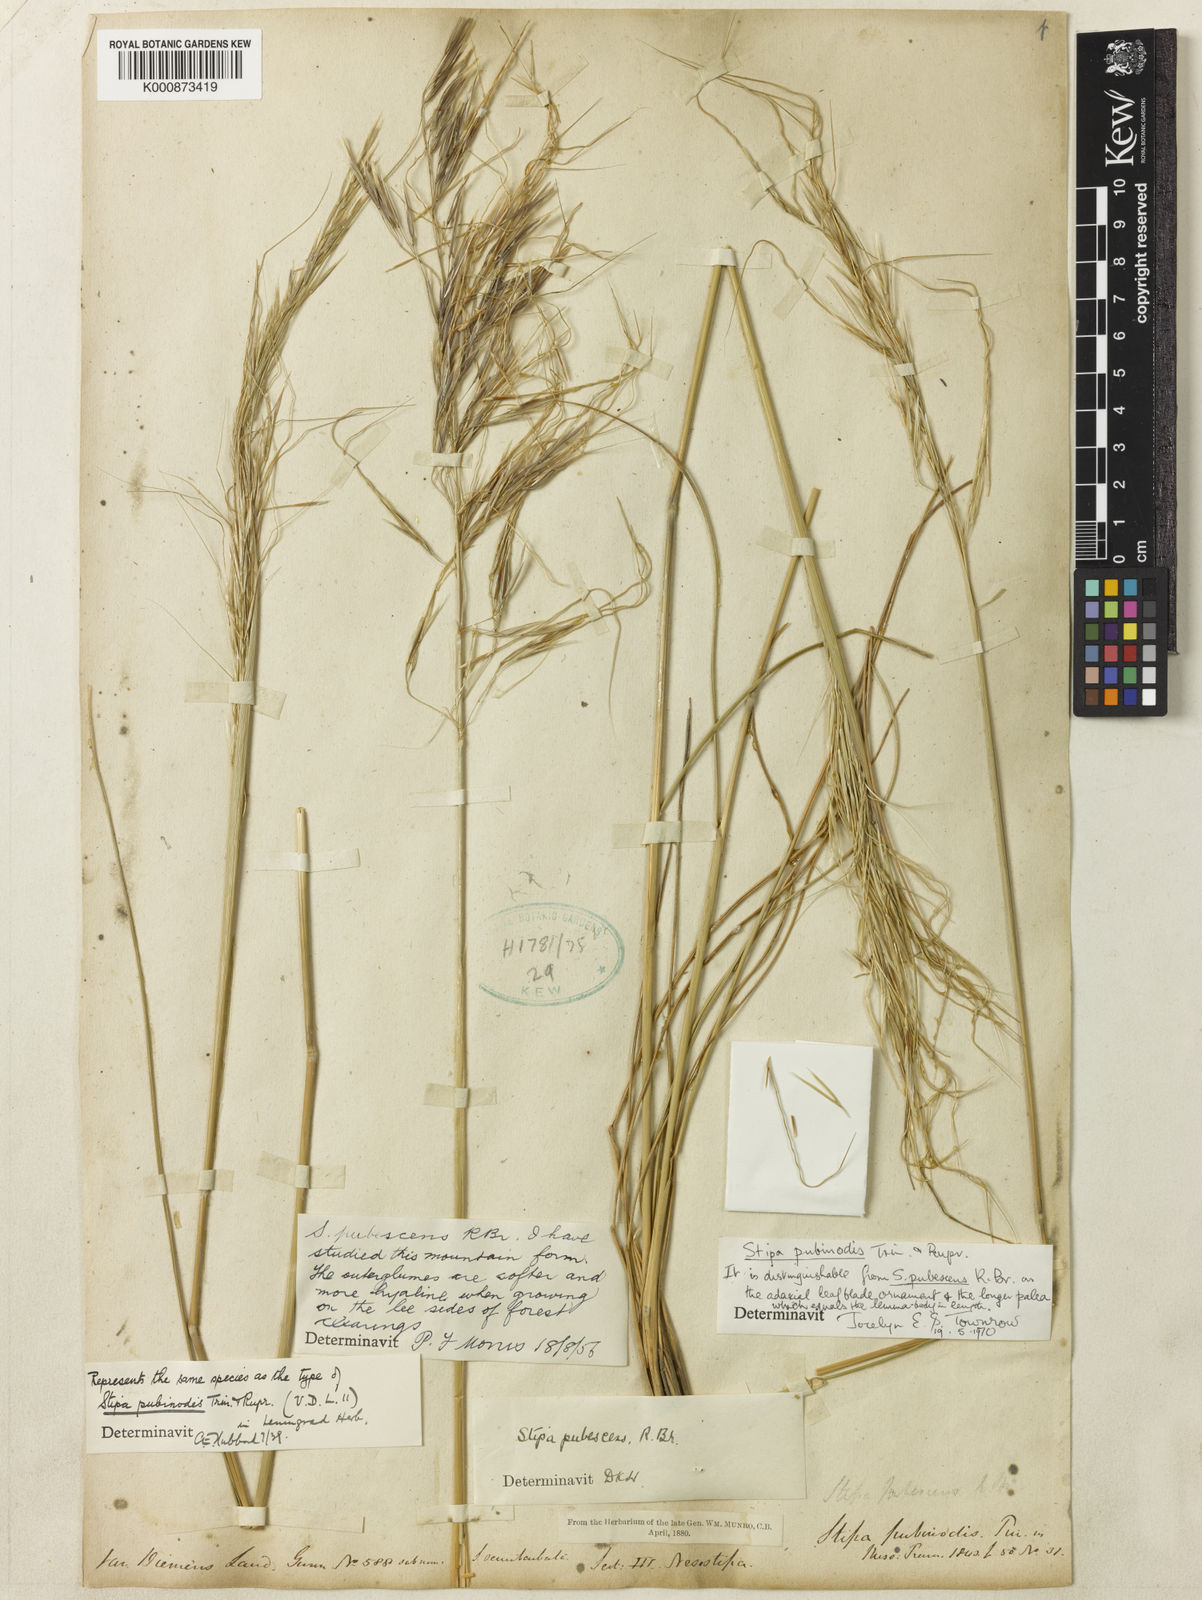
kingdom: Plantae
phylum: Tracheophyta
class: Liliopsida
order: Poales
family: Poaceae
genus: Austrostipa
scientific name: Austrostipa pubinodis
